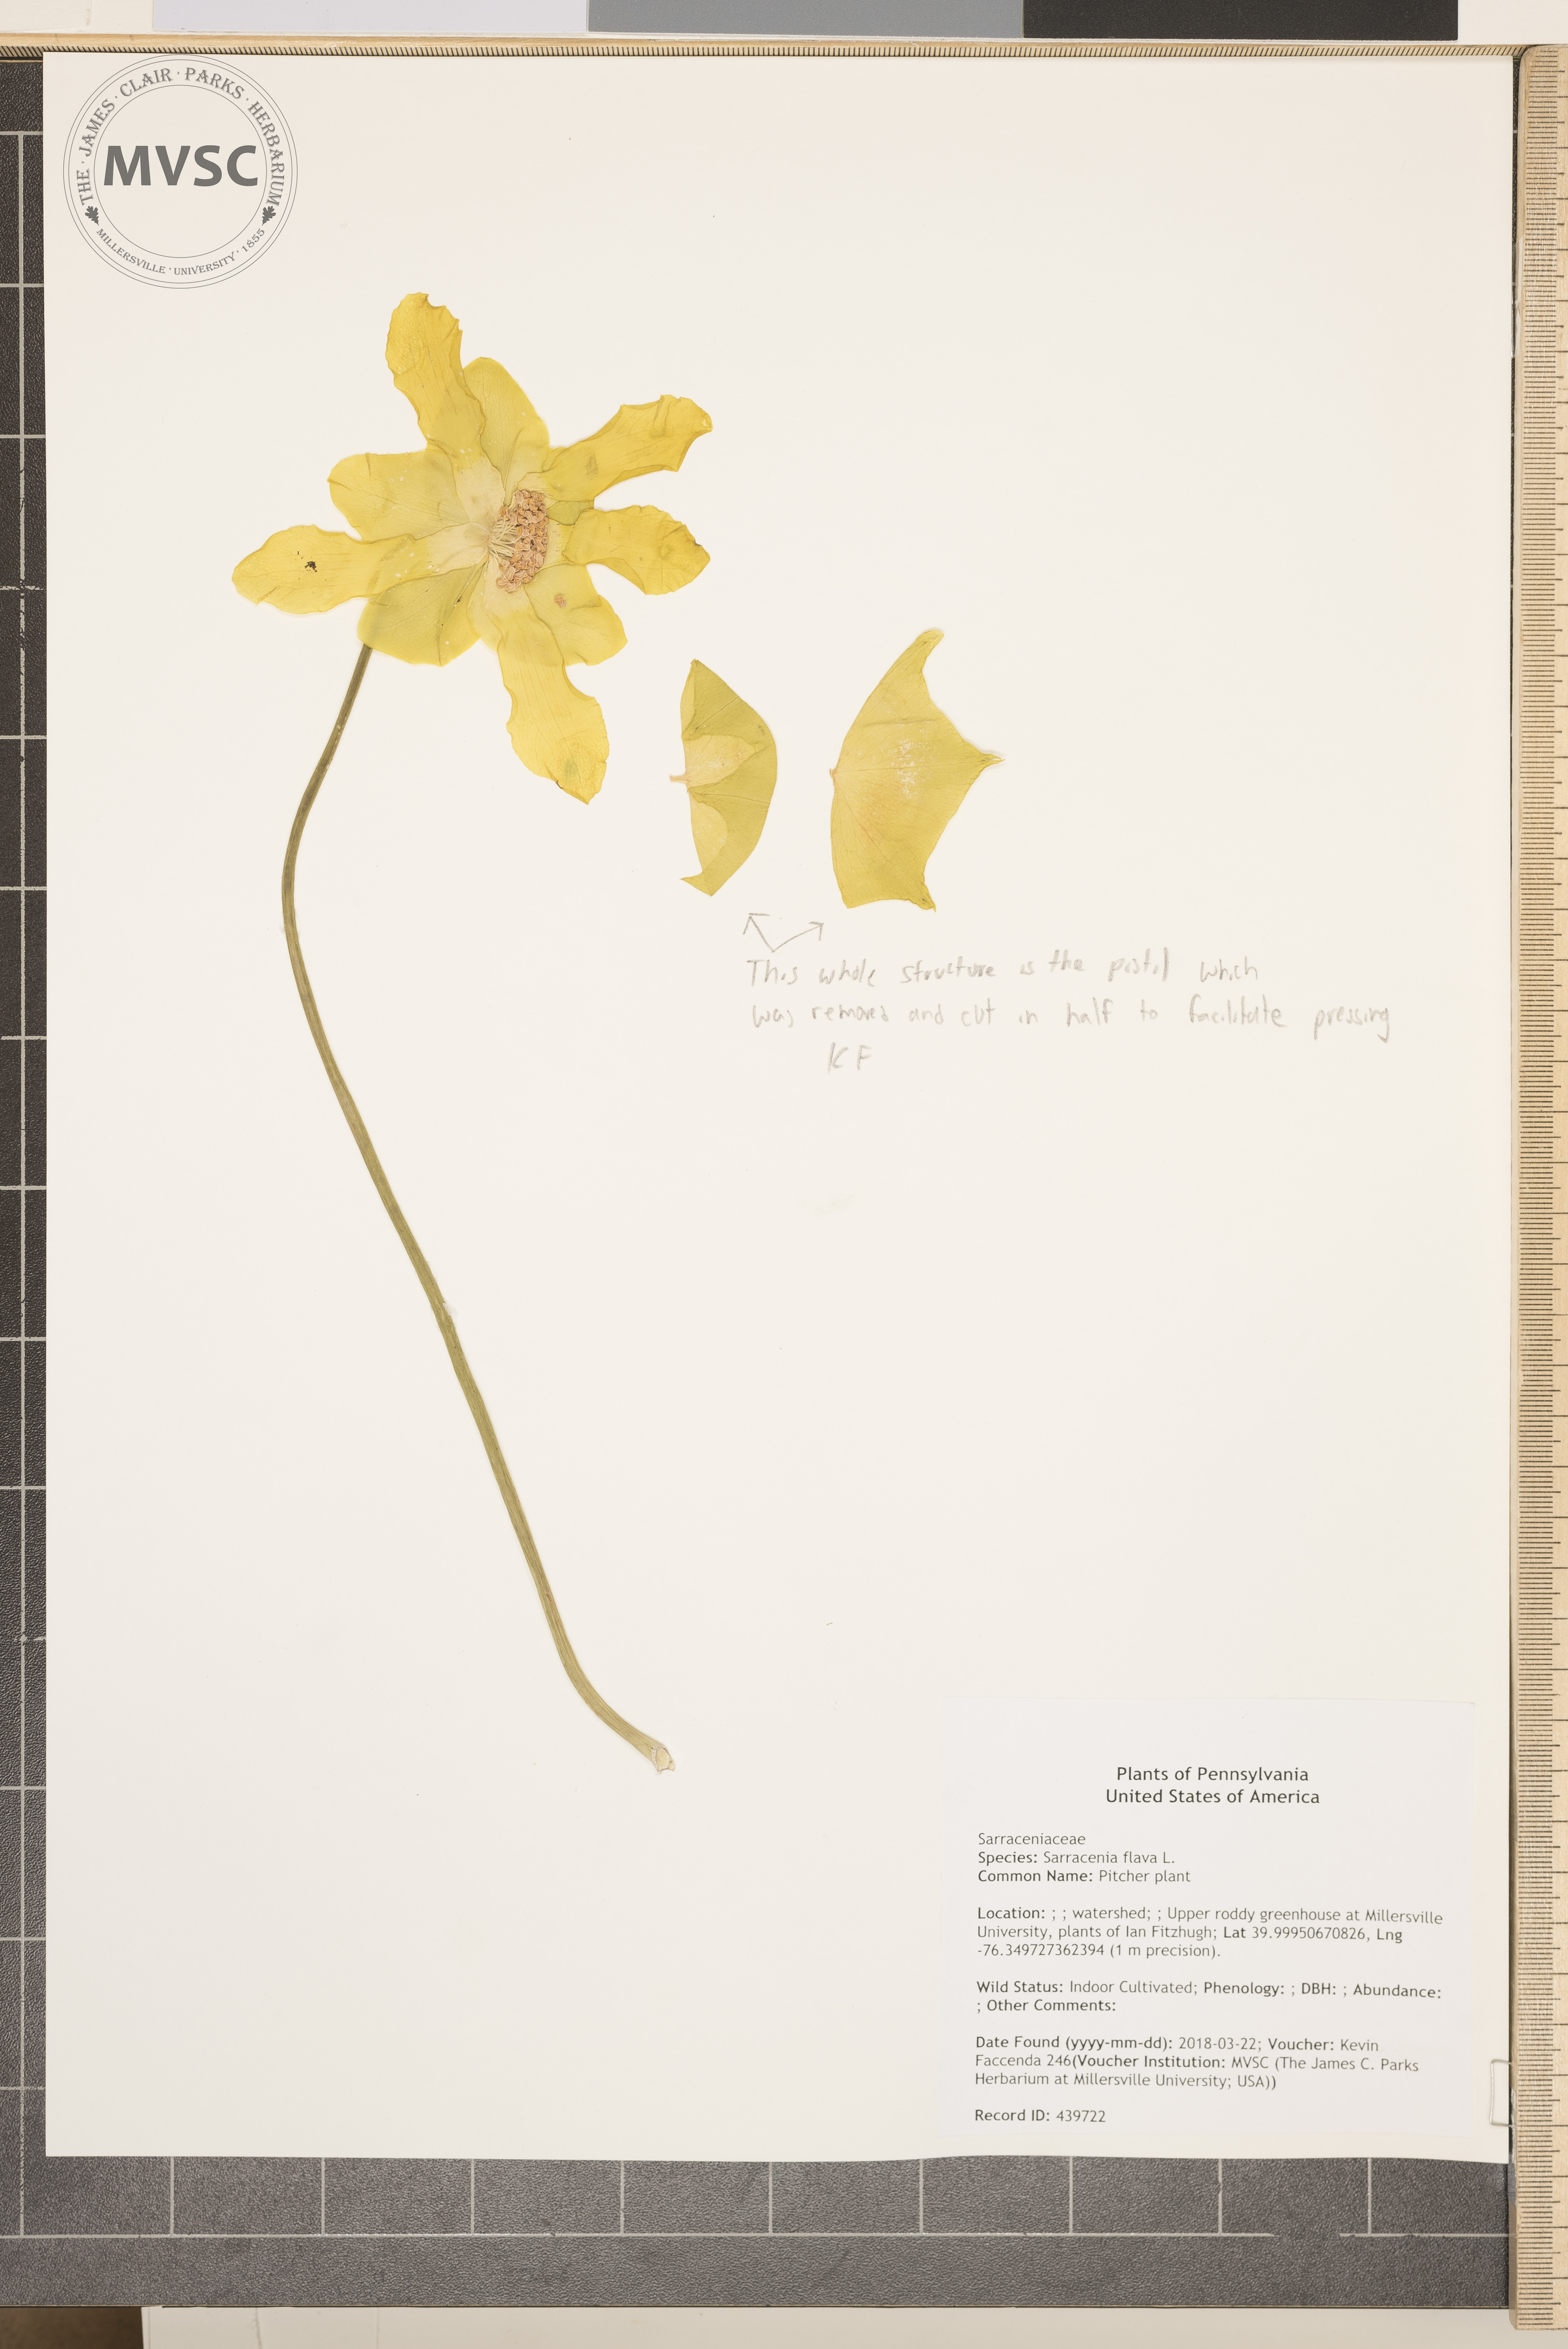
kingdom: Plantae
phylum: Tracheophyta
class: Magnoliopsida
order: Ericales
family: Sarraceniaceae
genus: Sarracenia
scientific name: Sarracenia flava
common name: Pitcher plant
